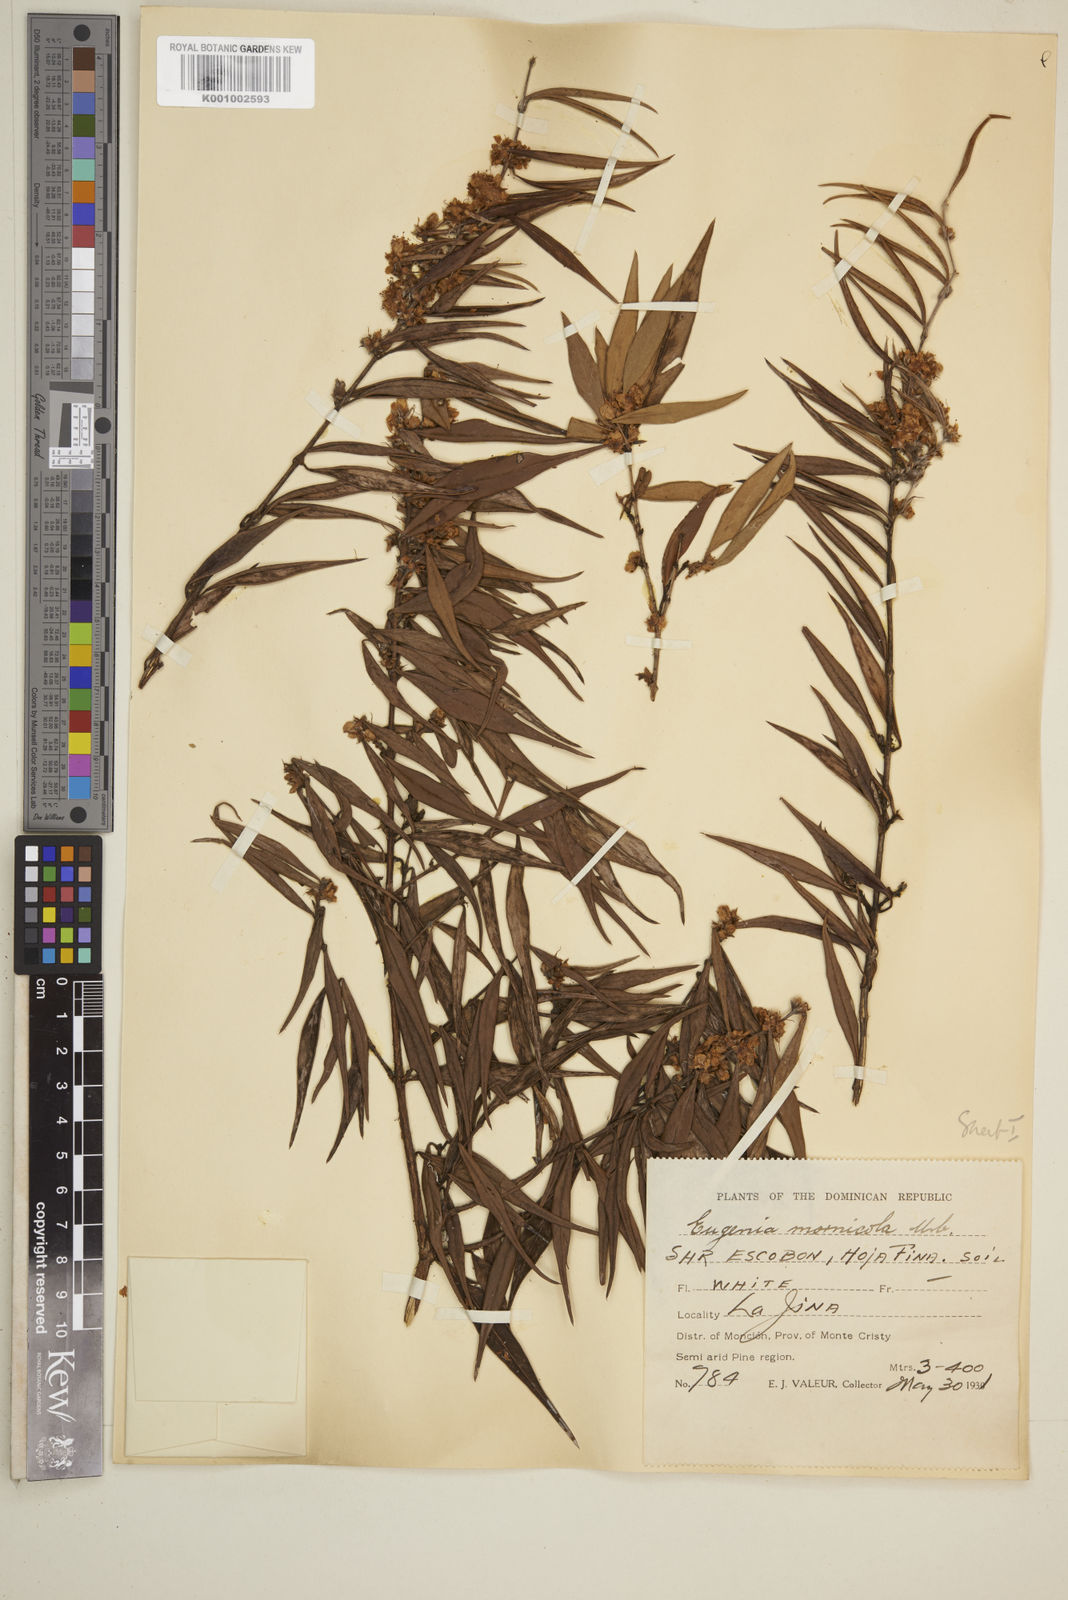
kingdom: Plantae
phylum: Tracheophyta
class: Magnoliopsida
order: Myrtales
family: Myrtaceae
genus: Eugenia
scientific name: Eugenia isabeliana
